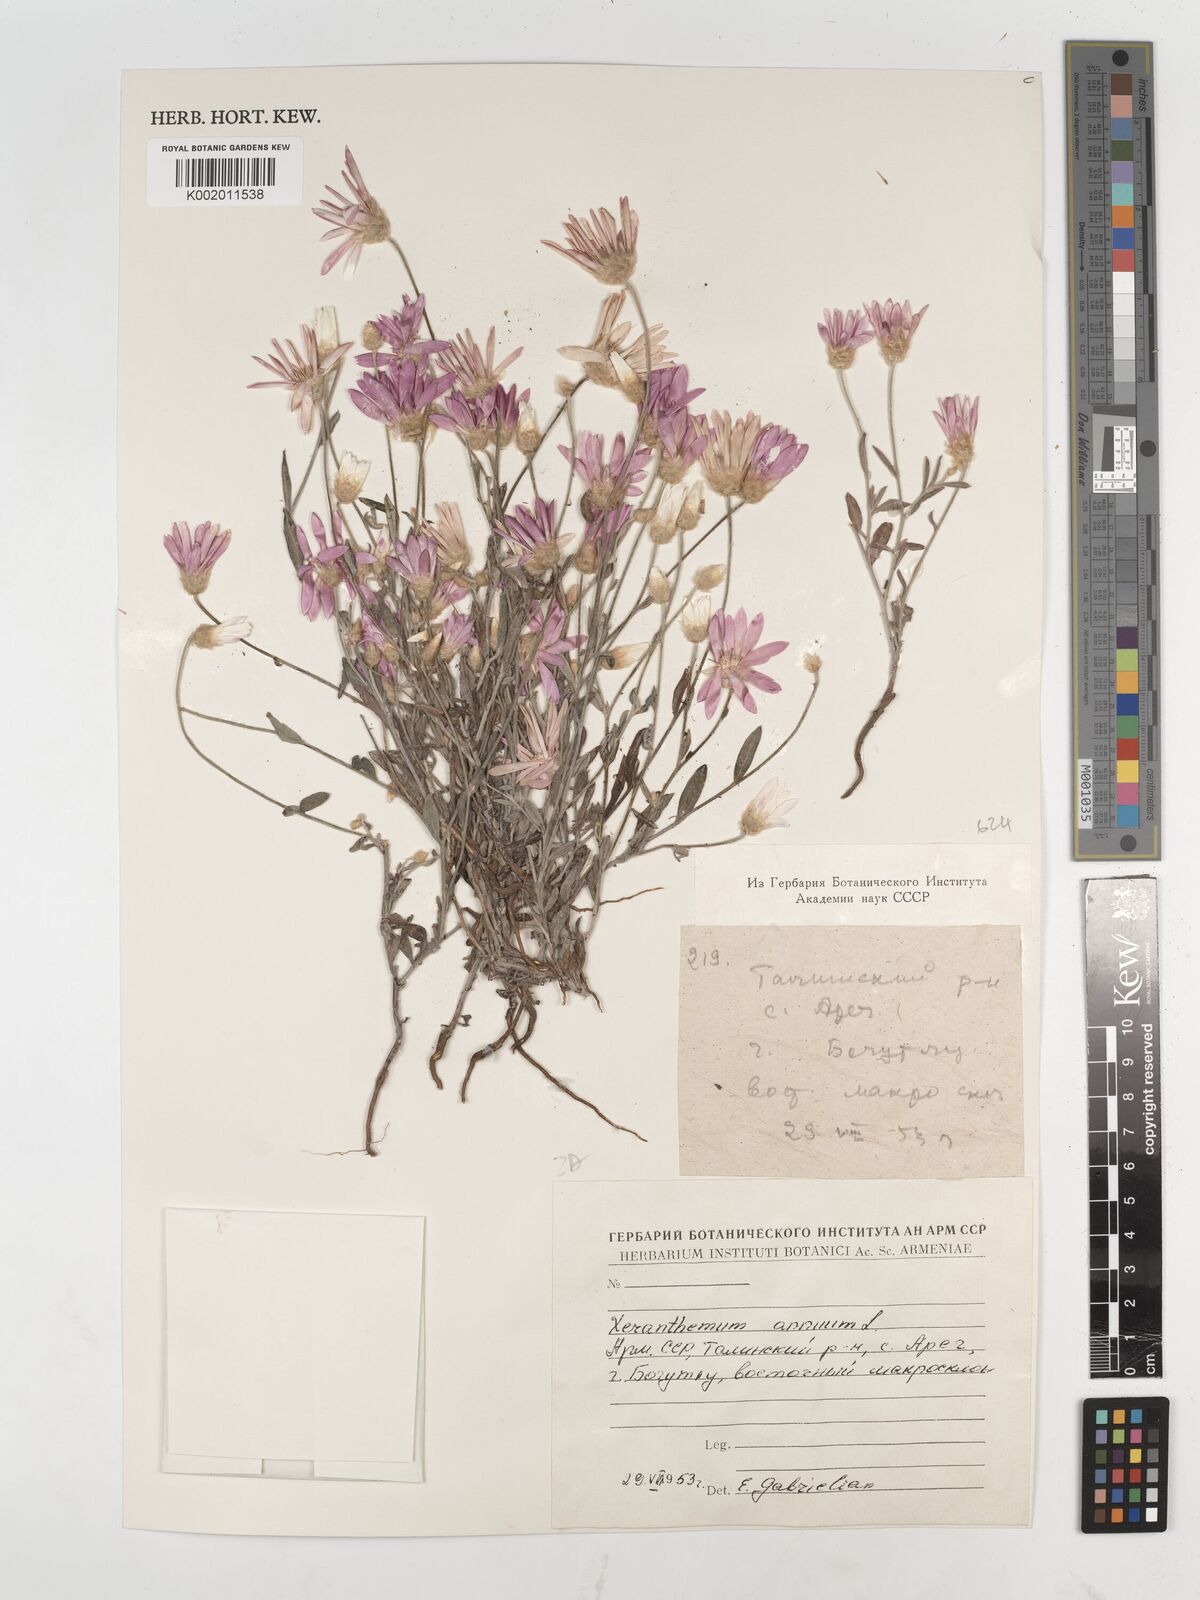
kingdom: Plantae
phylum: Tracheophyta
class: Magnoliopsida
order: Asterales
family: Asteraceae
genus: Xeranthemum
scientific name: Xeranthemum annuum
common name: Immortelle
